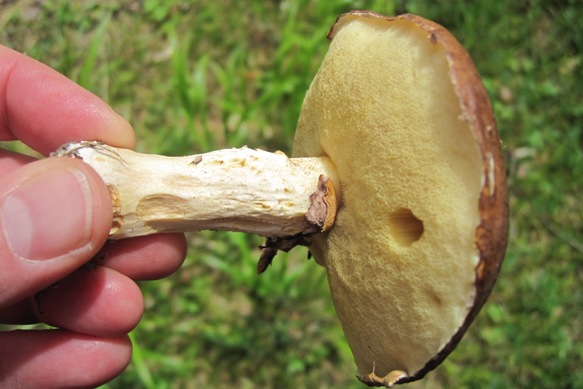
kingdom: Fungi
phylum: Basidiomycota
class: Agaricomycetes
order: Boletales
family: Suillaceae
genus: Suillus
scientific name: Suillus luteus
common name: brungul slimrørhat
